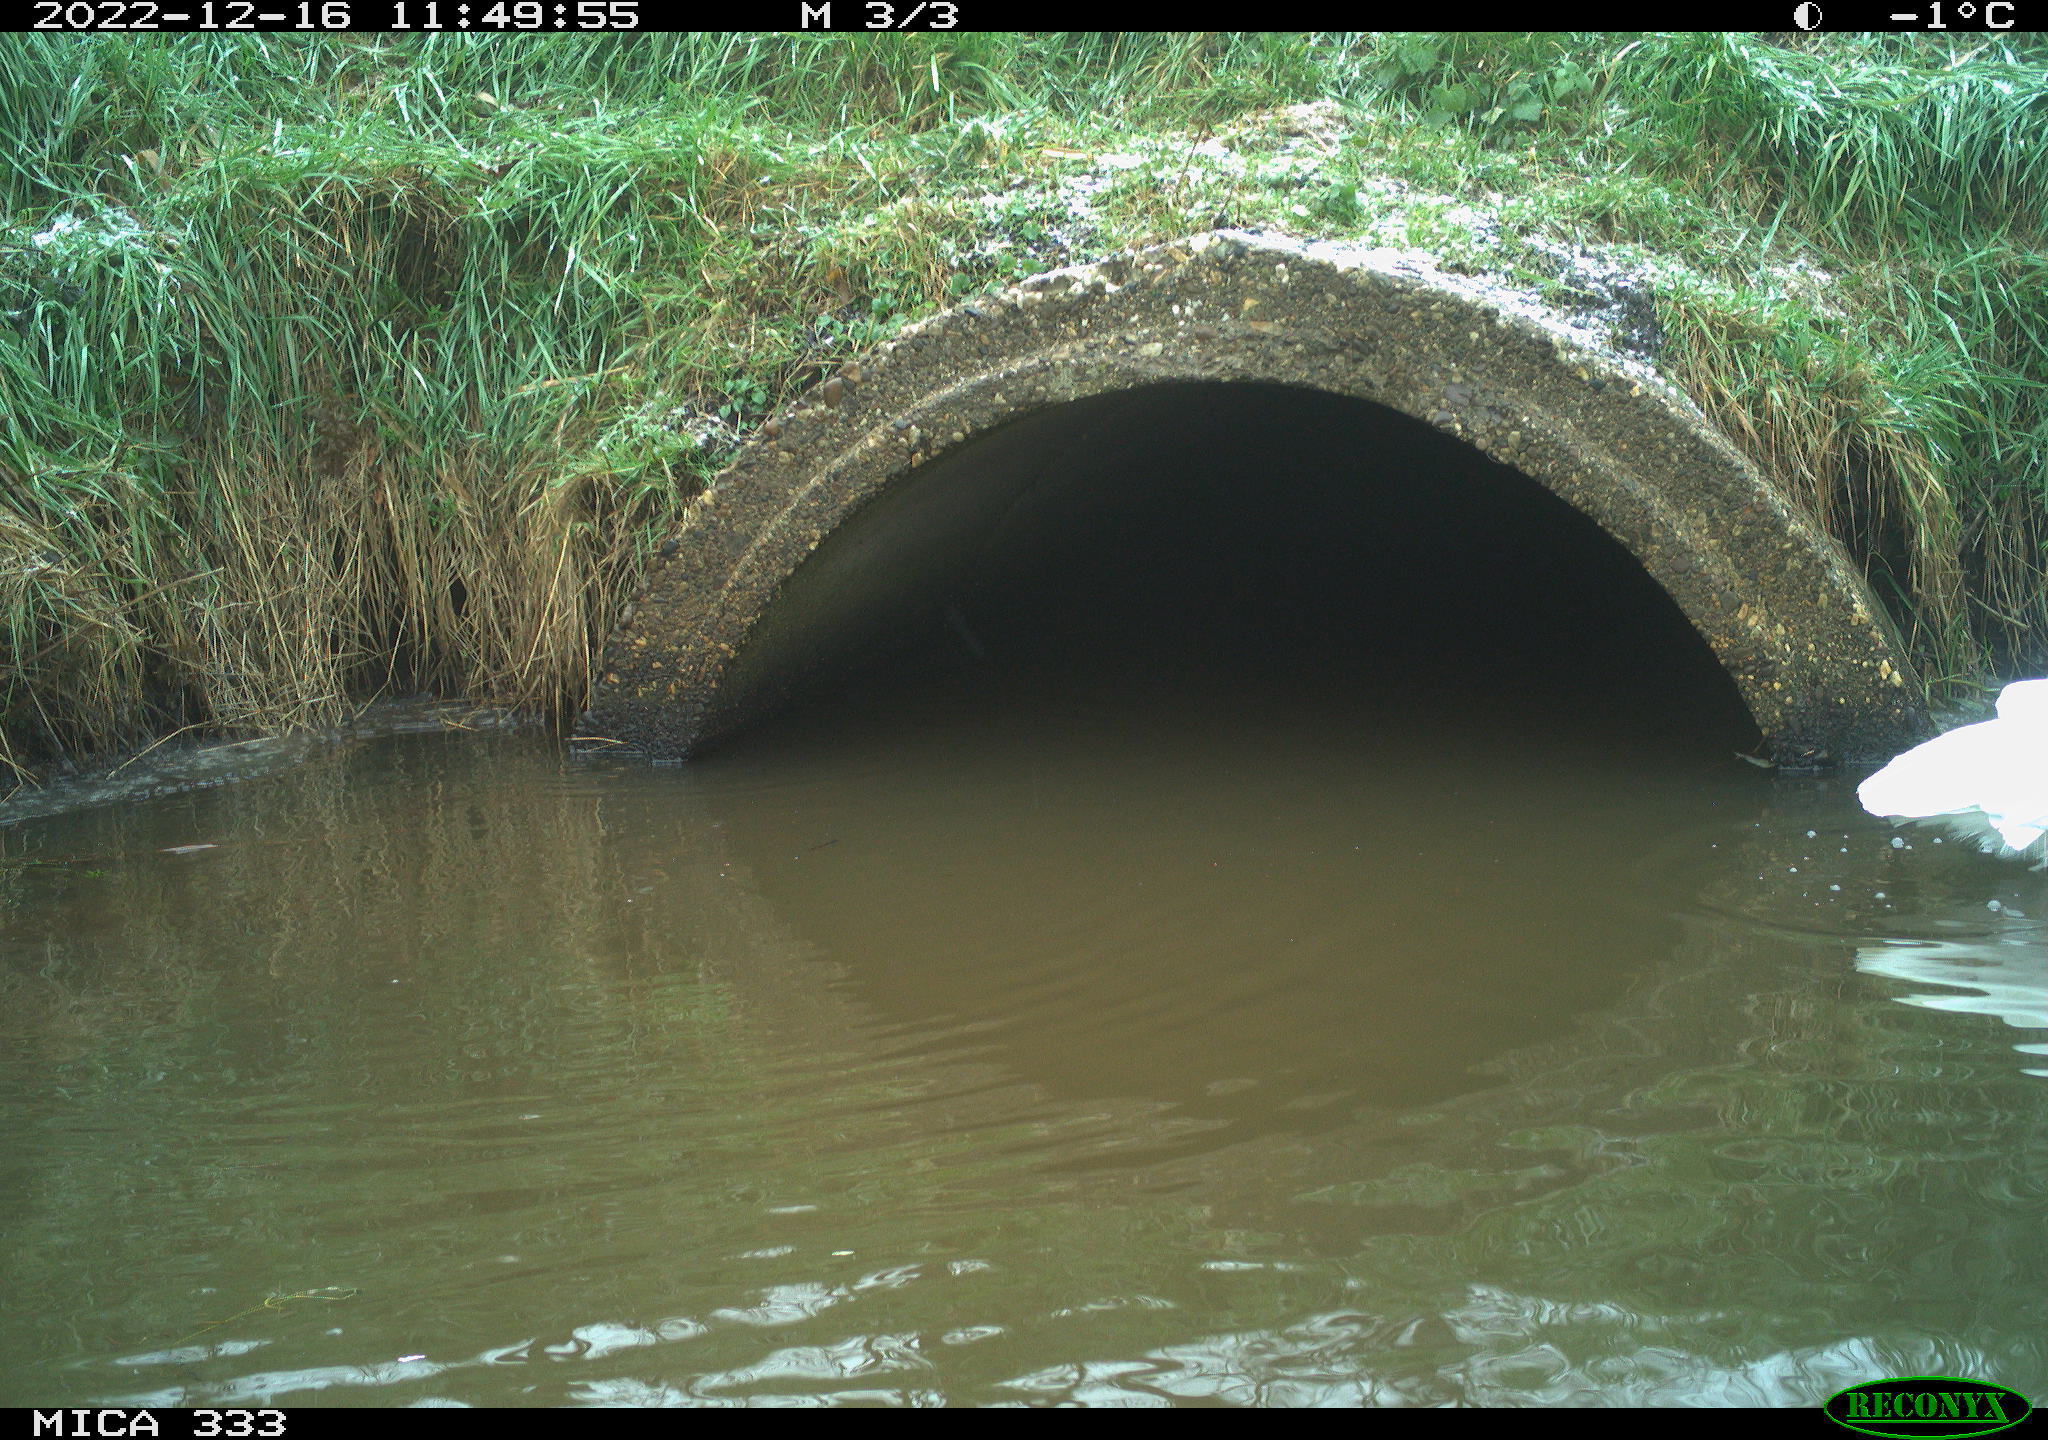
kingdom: Animalia
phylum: Chordata
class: Aves
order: Pelecaniformes
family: Ardeidae
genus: Ardea
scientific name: Ardea alba
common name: Great egret
